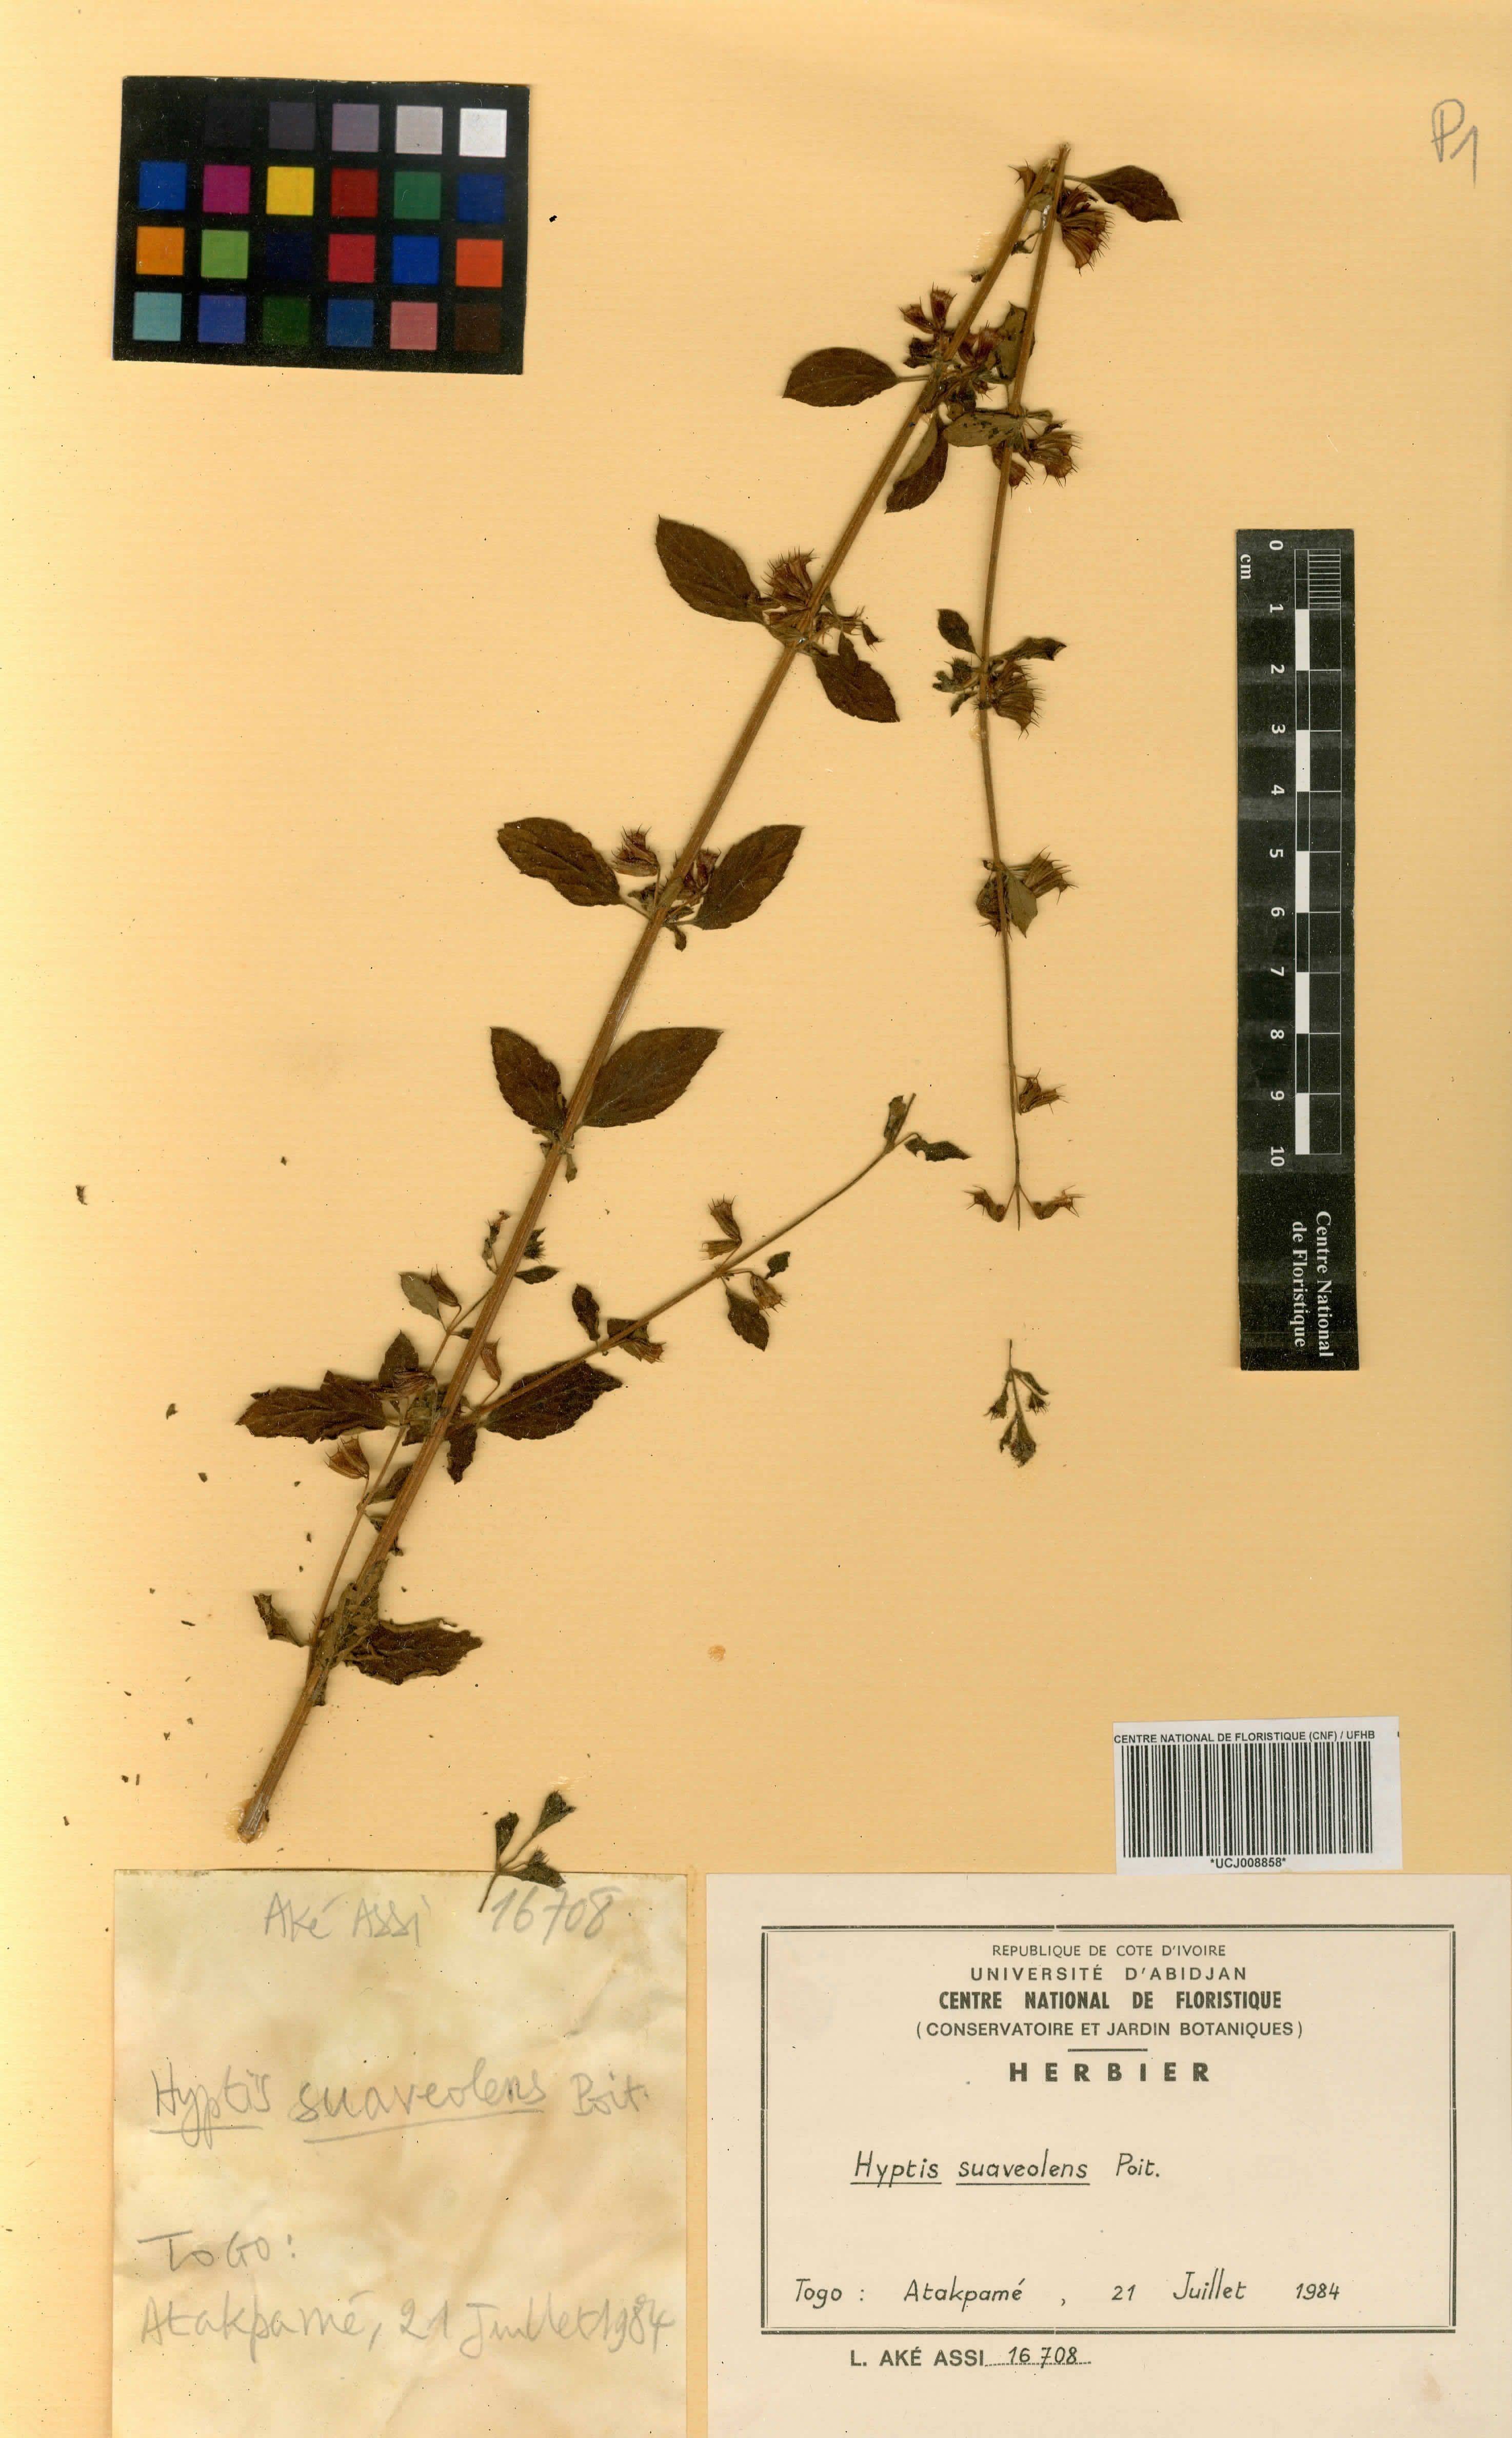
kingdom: Plantae
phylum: Tracheophyta
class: Magnoliopsida
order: Lamiales
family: Lamiaceae
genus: Mesosphaerum
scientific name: Mesosphaerum suaveolens
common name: Pignut
